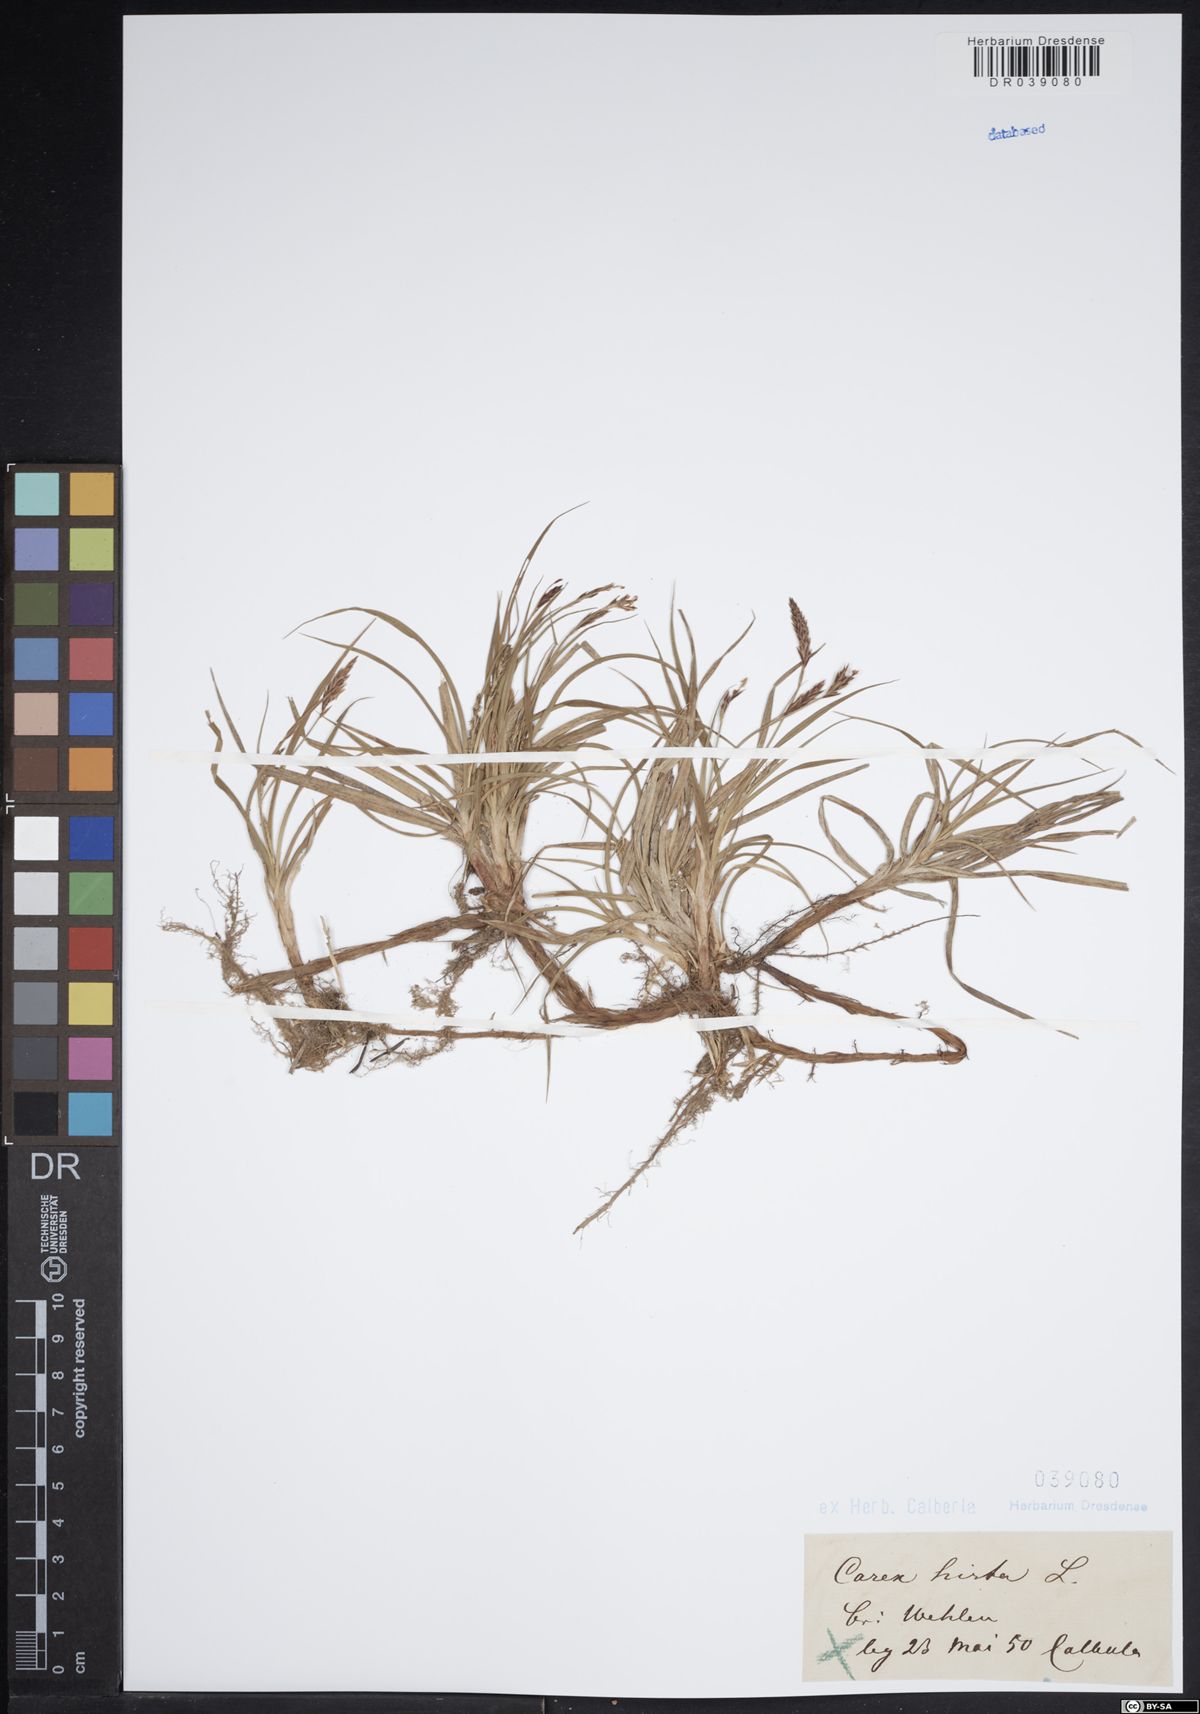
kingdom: Plantae
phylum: Tracheophyta
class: Liliopsida
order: Poales
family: Cyperaceae
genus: Carex
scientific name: Carex hirta
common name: Hairy sedge
